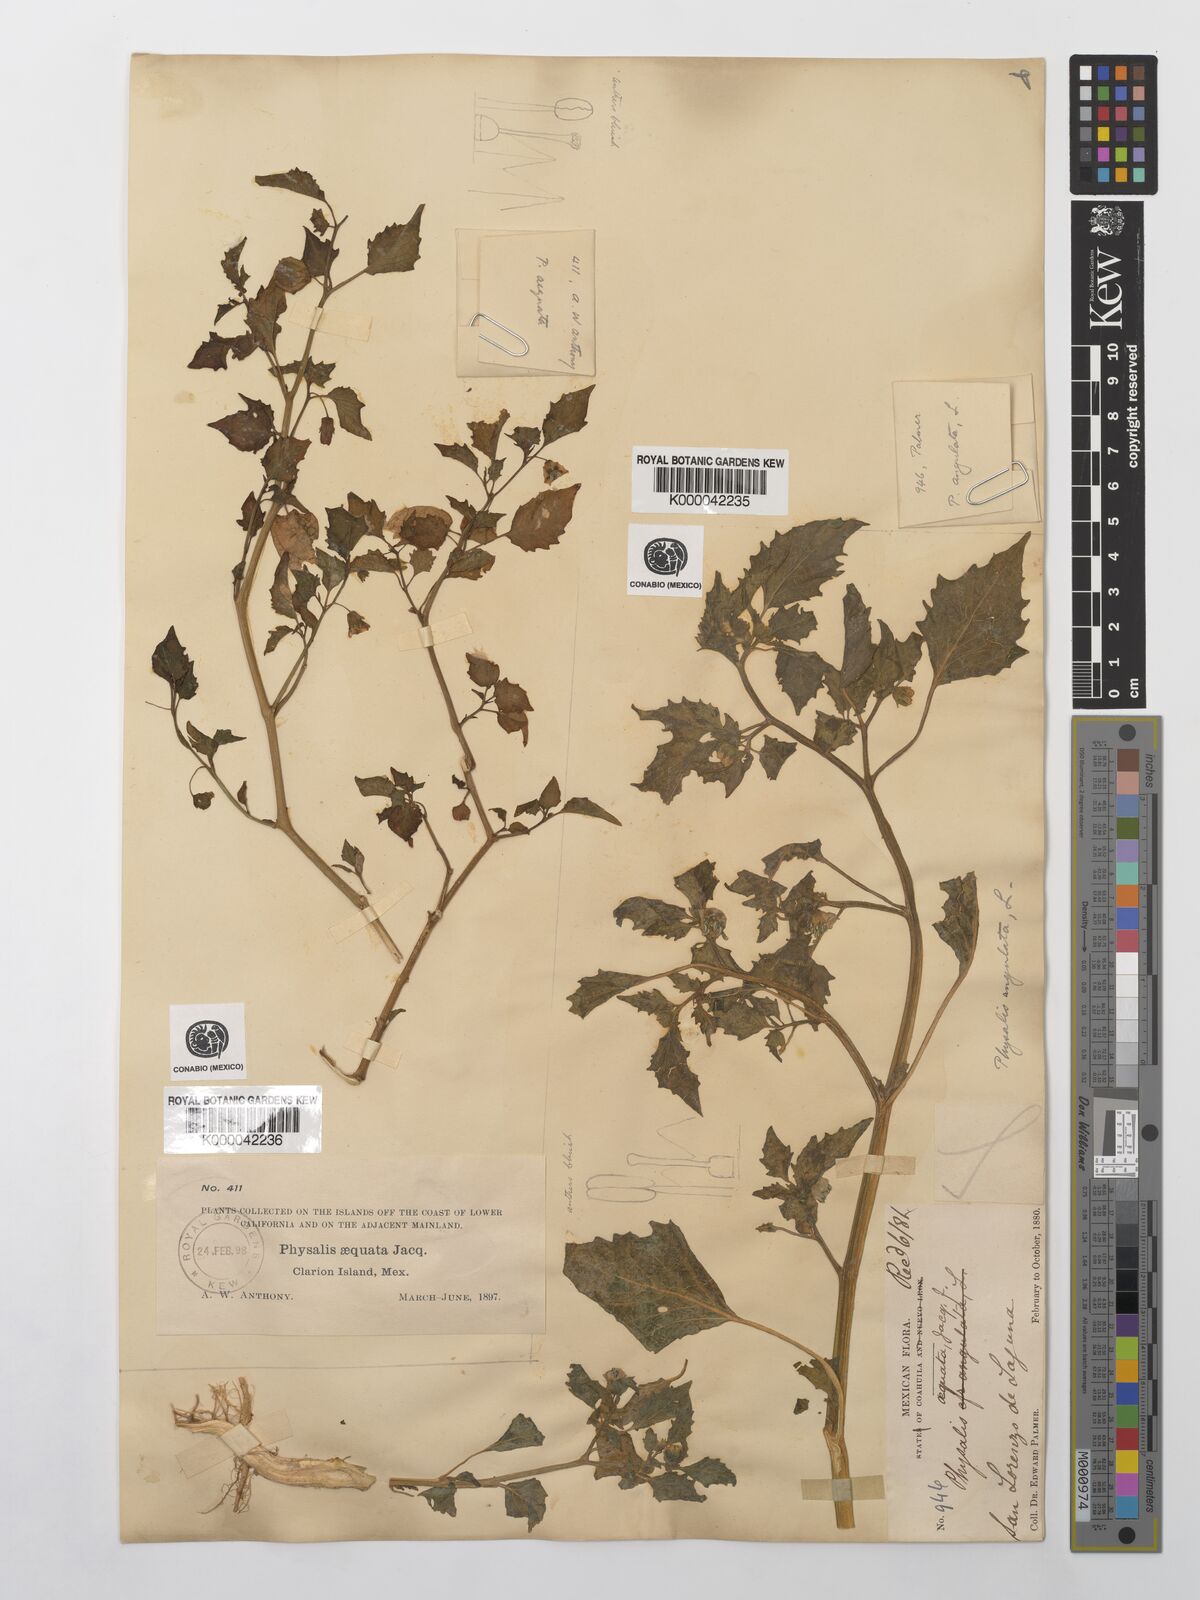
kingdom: Plantae
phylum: Tracheophyta
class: Magnoliopsida
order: Solanales
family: Solanaceae
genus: Physalis
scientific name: Physalis philadelphica
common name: Husk-tomato
